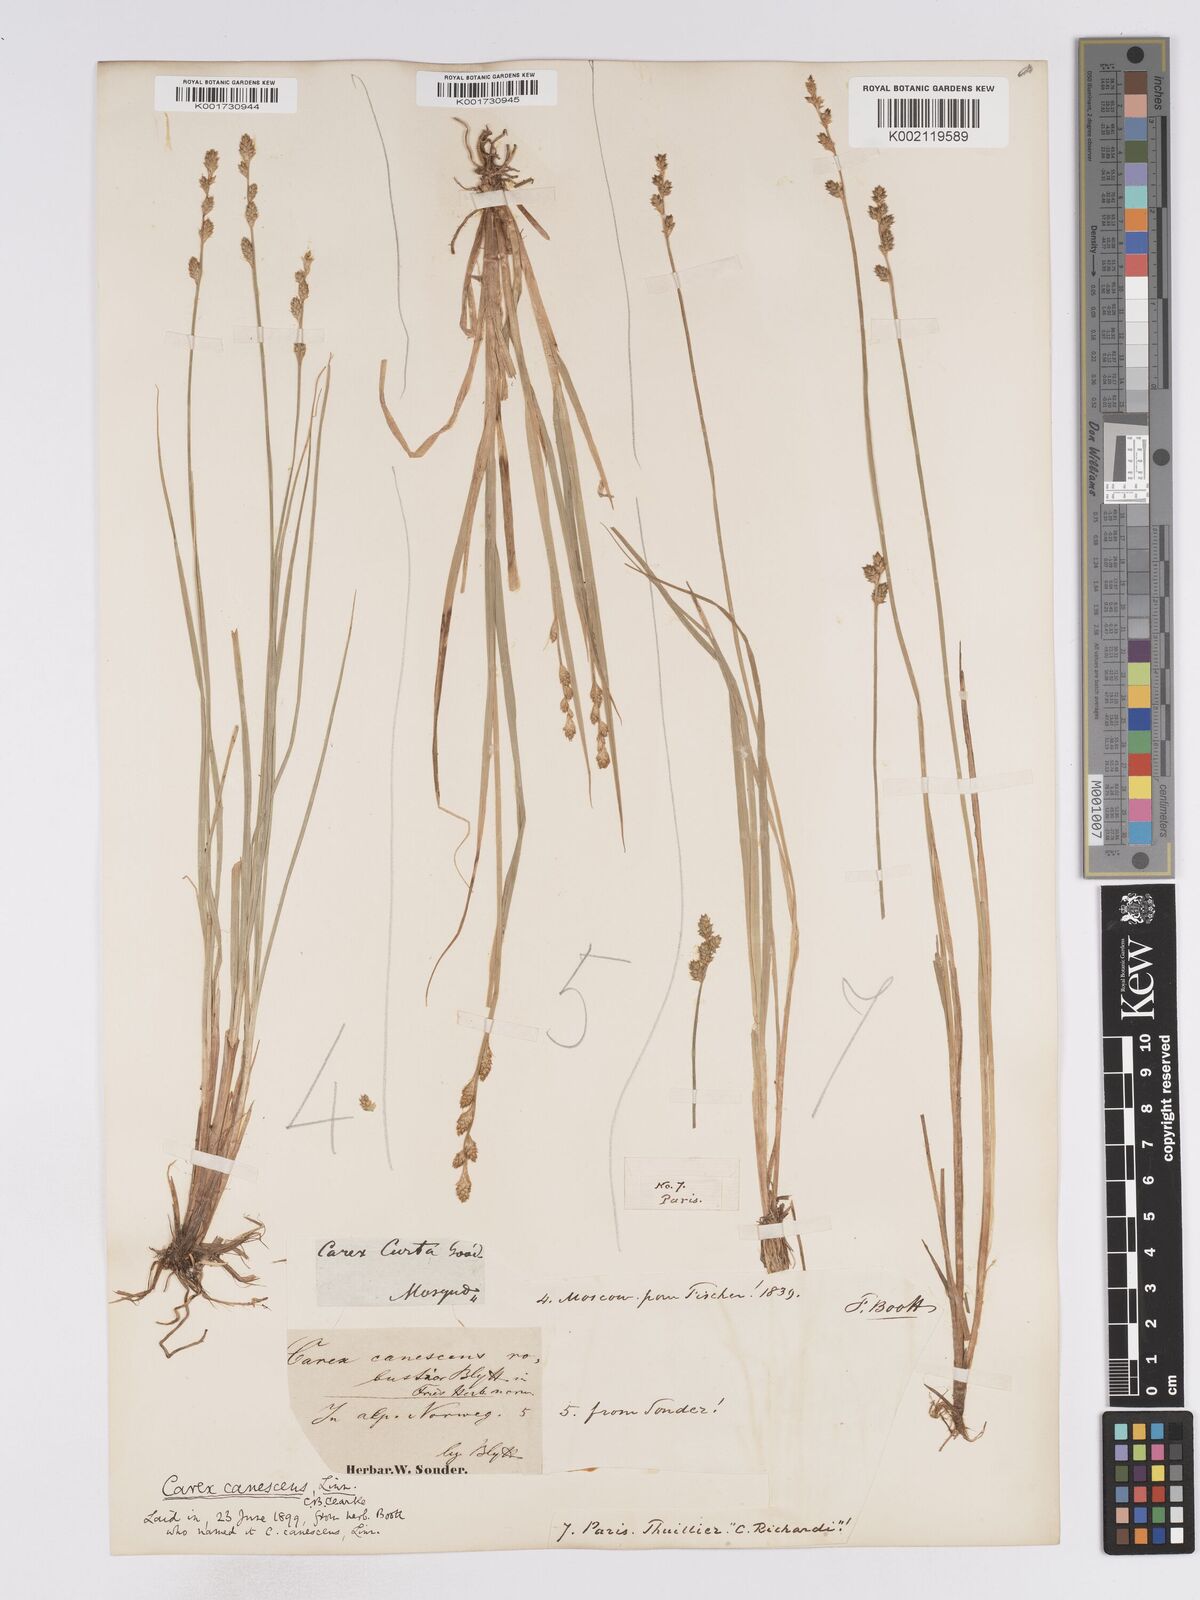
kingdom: Plantae
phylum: Tracheophyta
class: Liliopsida
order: Poales
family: Cyperaceae
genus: Carex
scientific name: Carex curta
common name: White sedge
